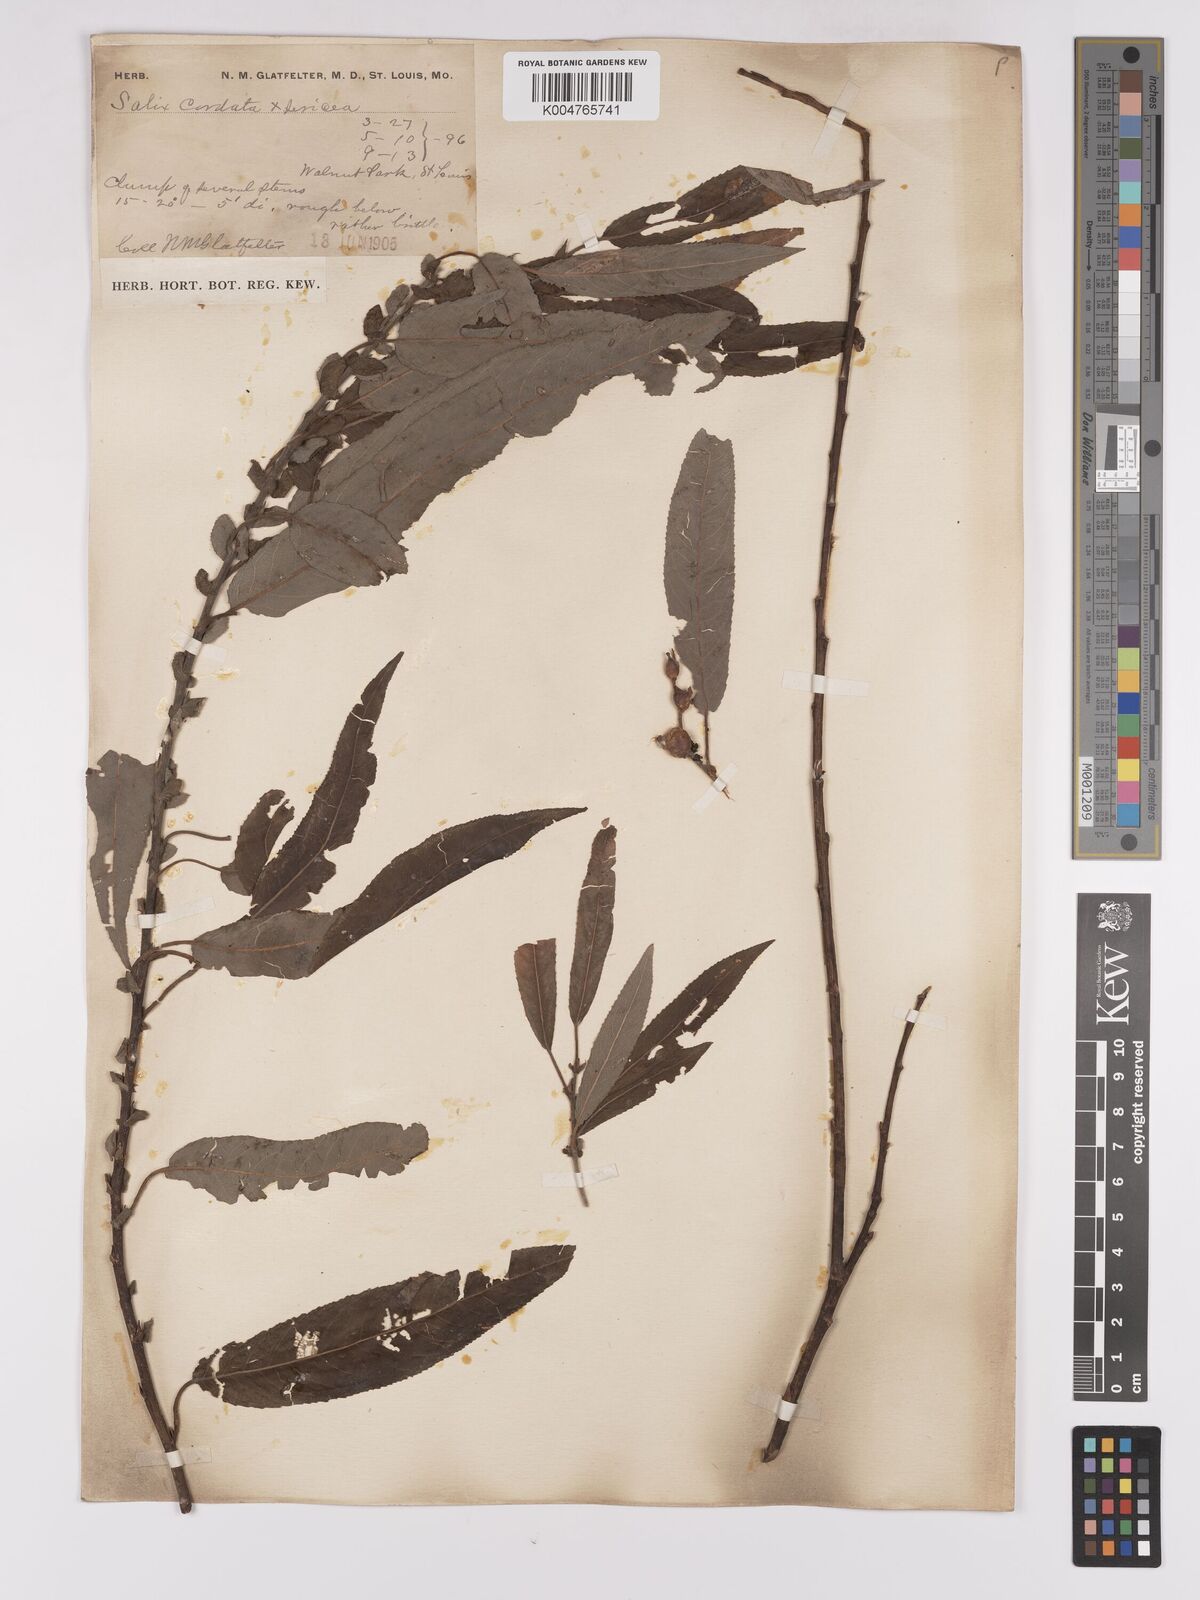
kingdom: Plantae
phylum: Tracheophyta
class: Magnoliopsida
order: Malpighiales
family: Salicaceae
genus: Salix
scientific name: Salix cordata
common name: Heart-leaf willow
